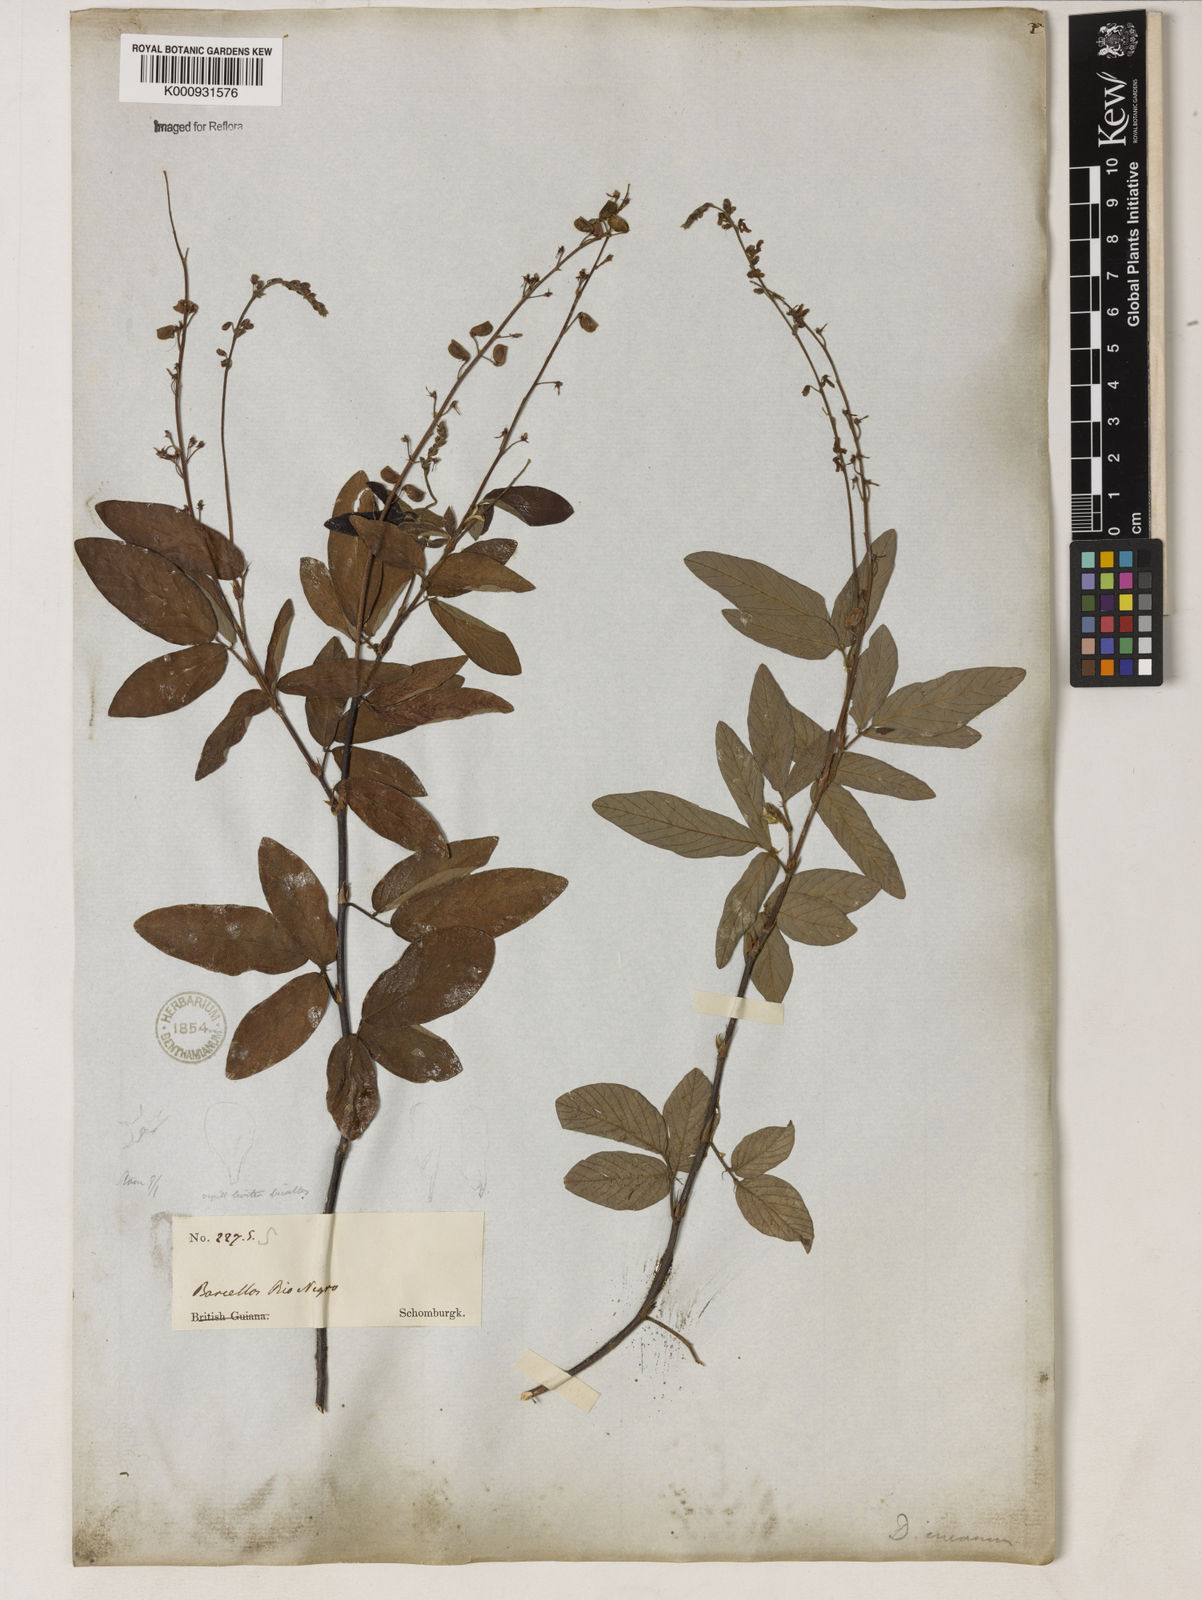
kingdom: Plantae
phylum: Tracheophyta
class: Magnoliopsida
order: Fabales
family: Fabaceae
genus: Desmodium
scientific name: Desmodium incanum
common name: Tickclover
